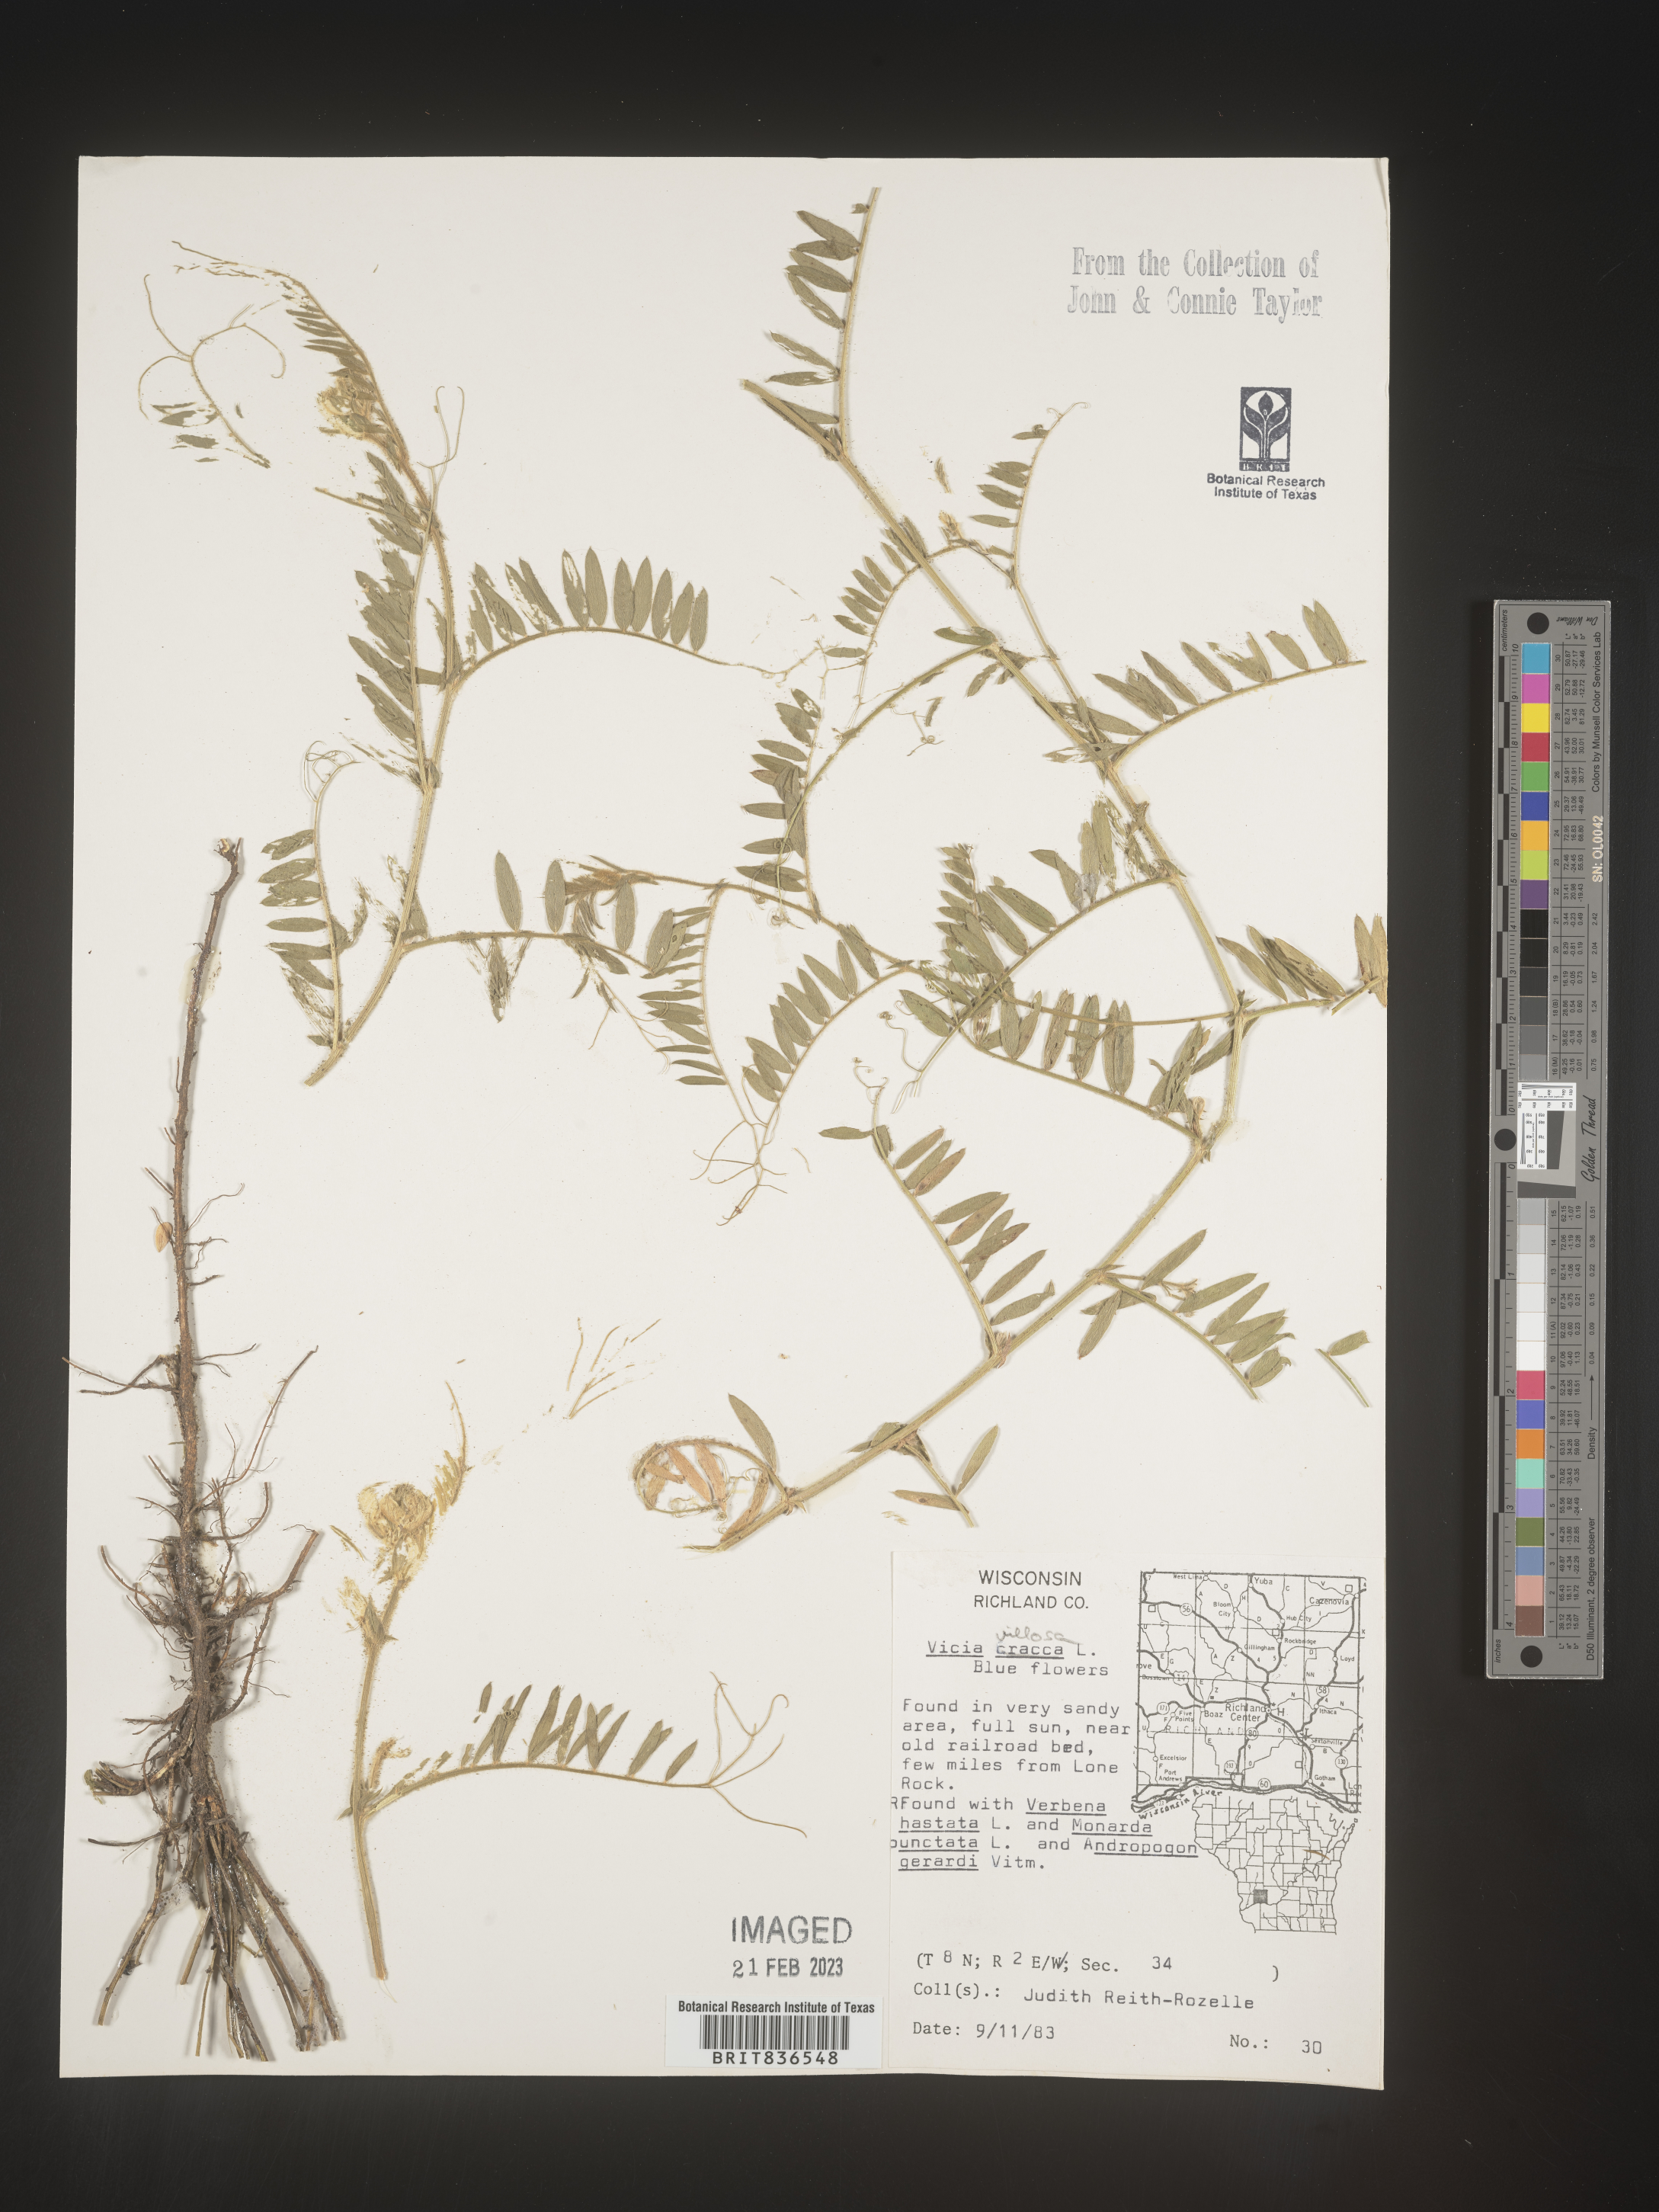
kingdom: Plantae
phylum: Tracheophyta
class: Magnoliopsida
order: Fabales
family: Fabaceae
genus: Vicia
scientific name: Vicia villosa
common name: Fodder vetch
